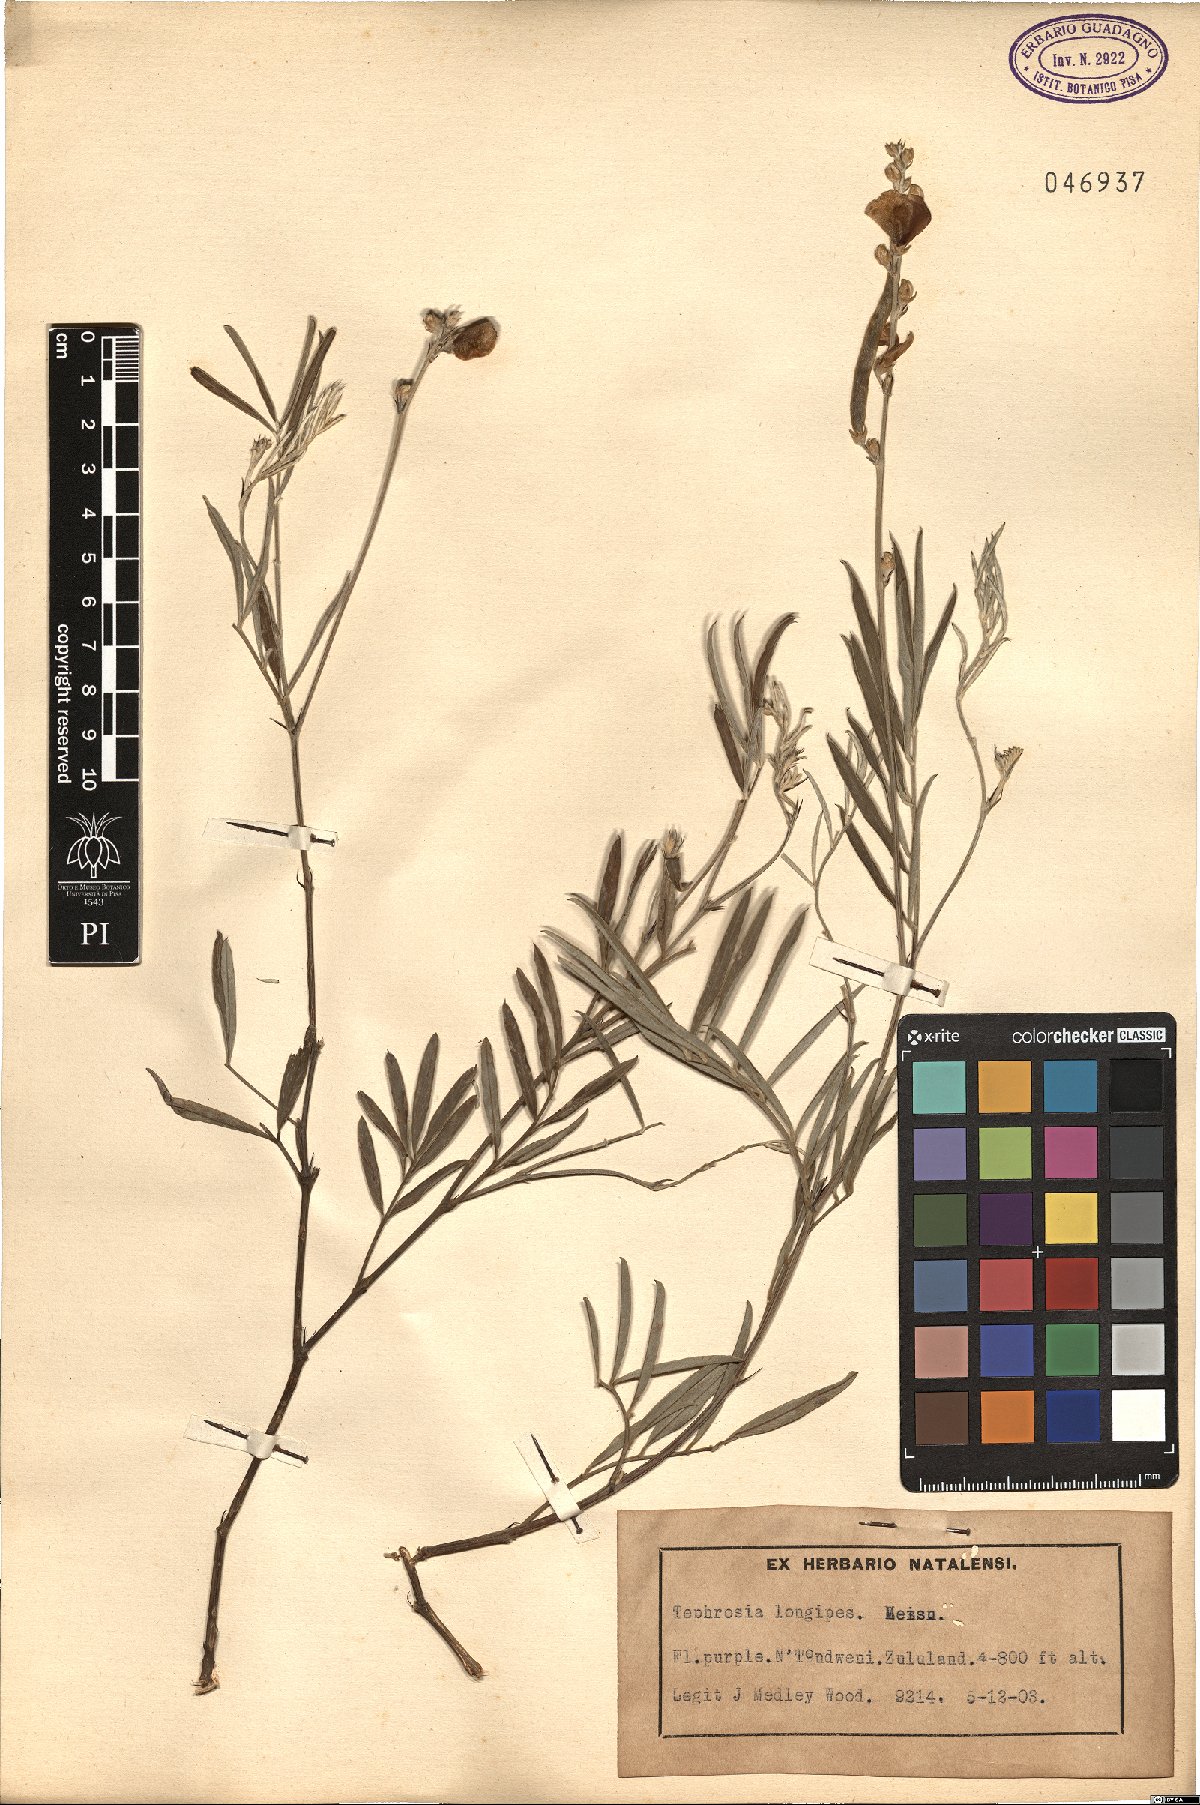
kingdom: Plantae
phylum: Tracheophyta
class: Magnoliopsida
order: Fabales
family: Fabaceae
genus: Tephrosia
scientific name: Tephrosia longipes
